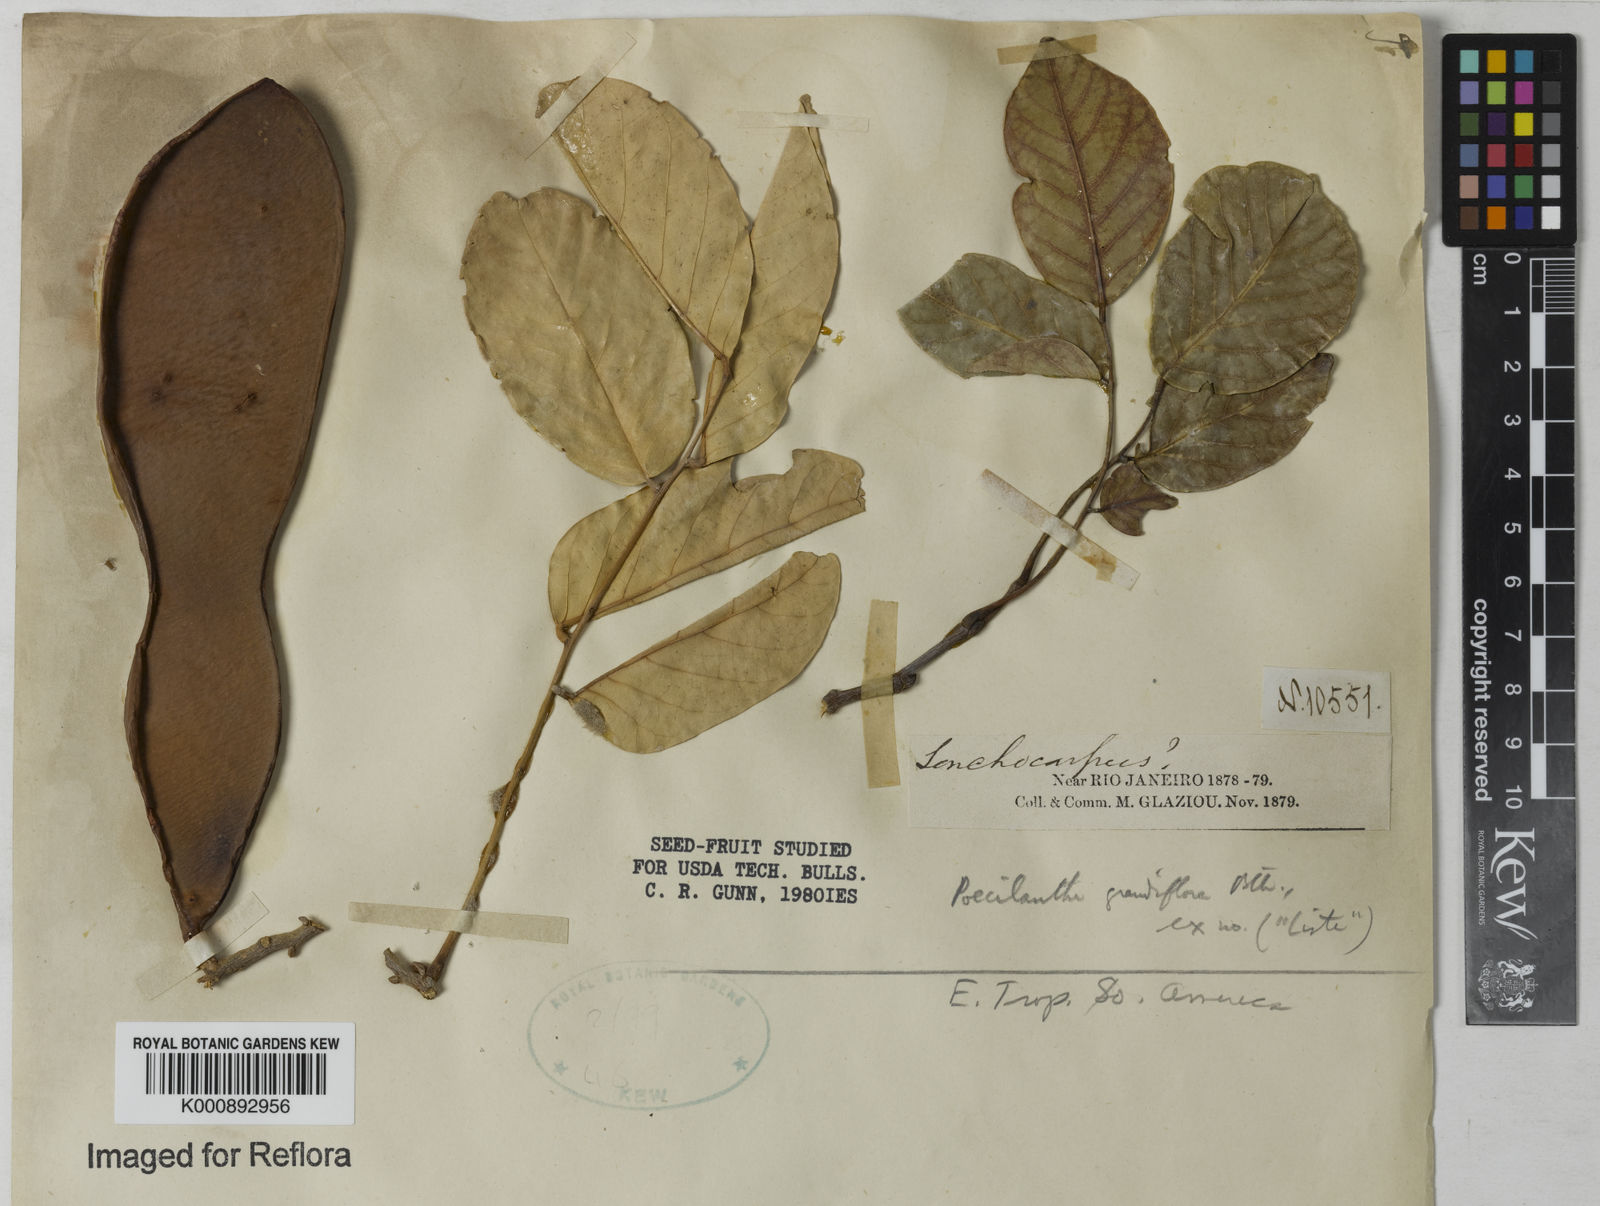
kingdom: Plantae
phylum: Tracheophyta
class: Magnoliopsida
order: Fabales
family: Fabaceae
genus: Poecilanthe
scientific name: Poecilanthe grandiflora
